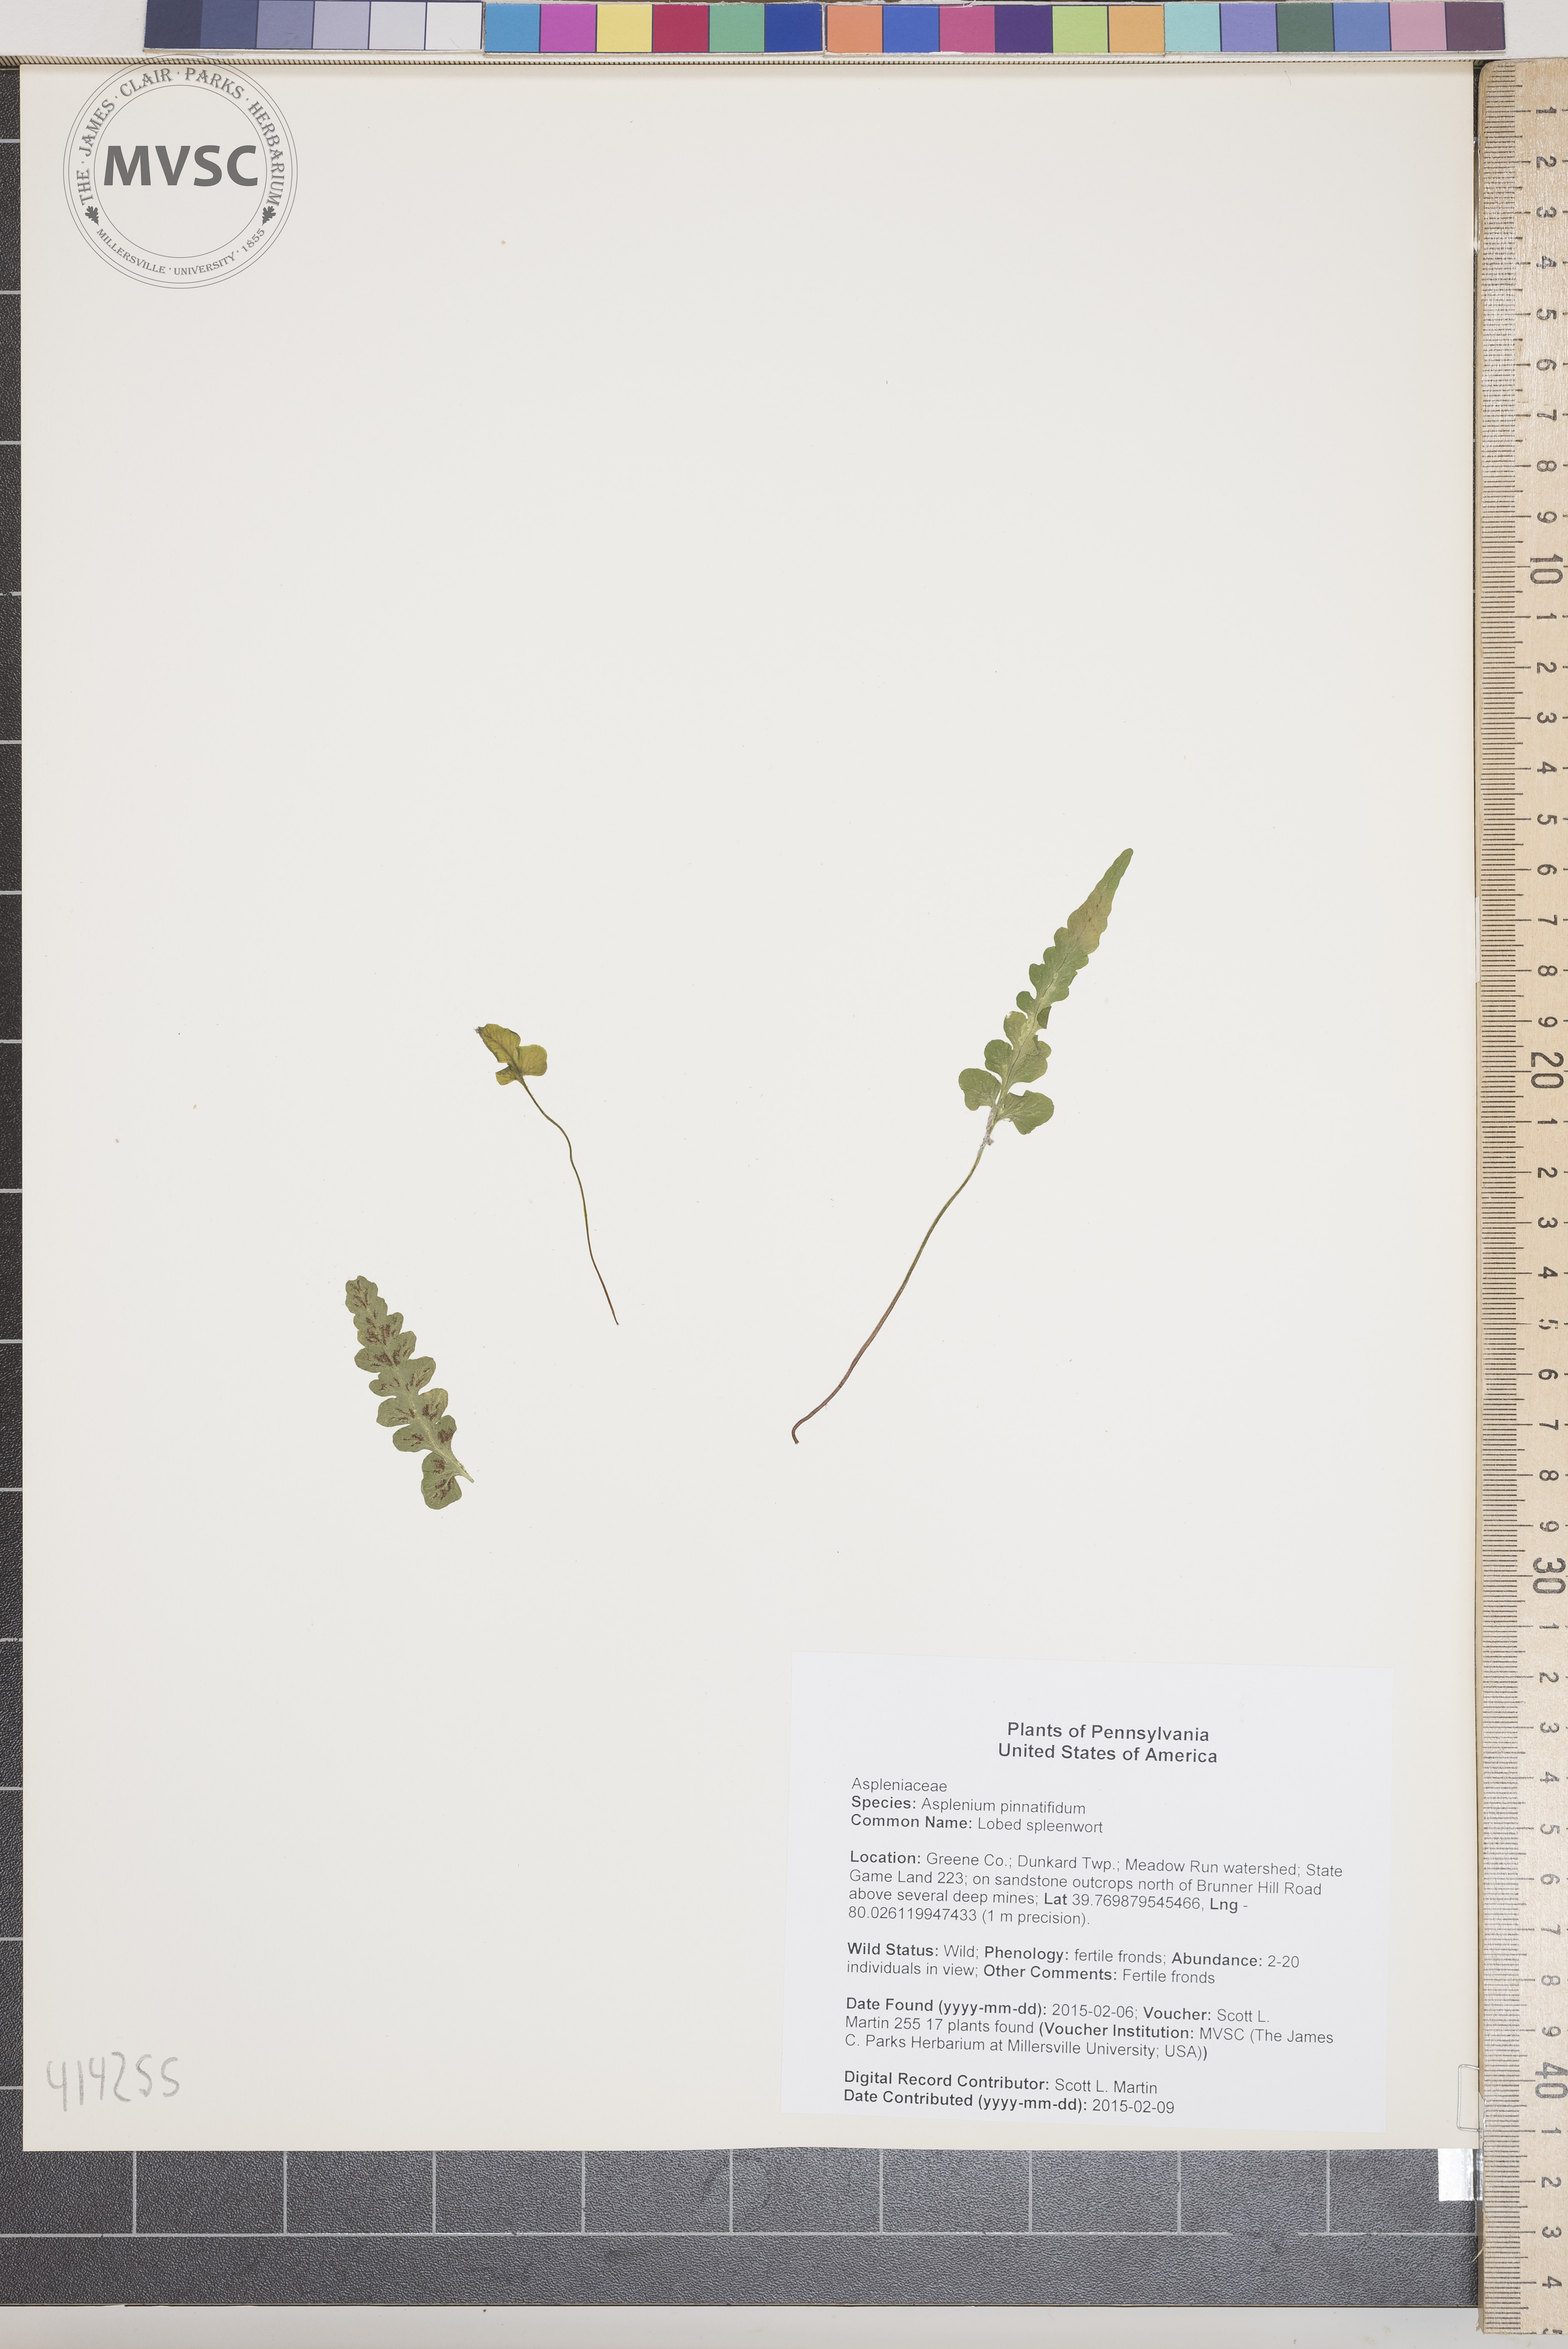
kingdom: Plantae
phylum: Tracheophyta
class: Polypodiopsida
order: Polypodiales
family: Aspleniaceae
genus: Asplenium
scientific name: Asplenium pinnatifidum
